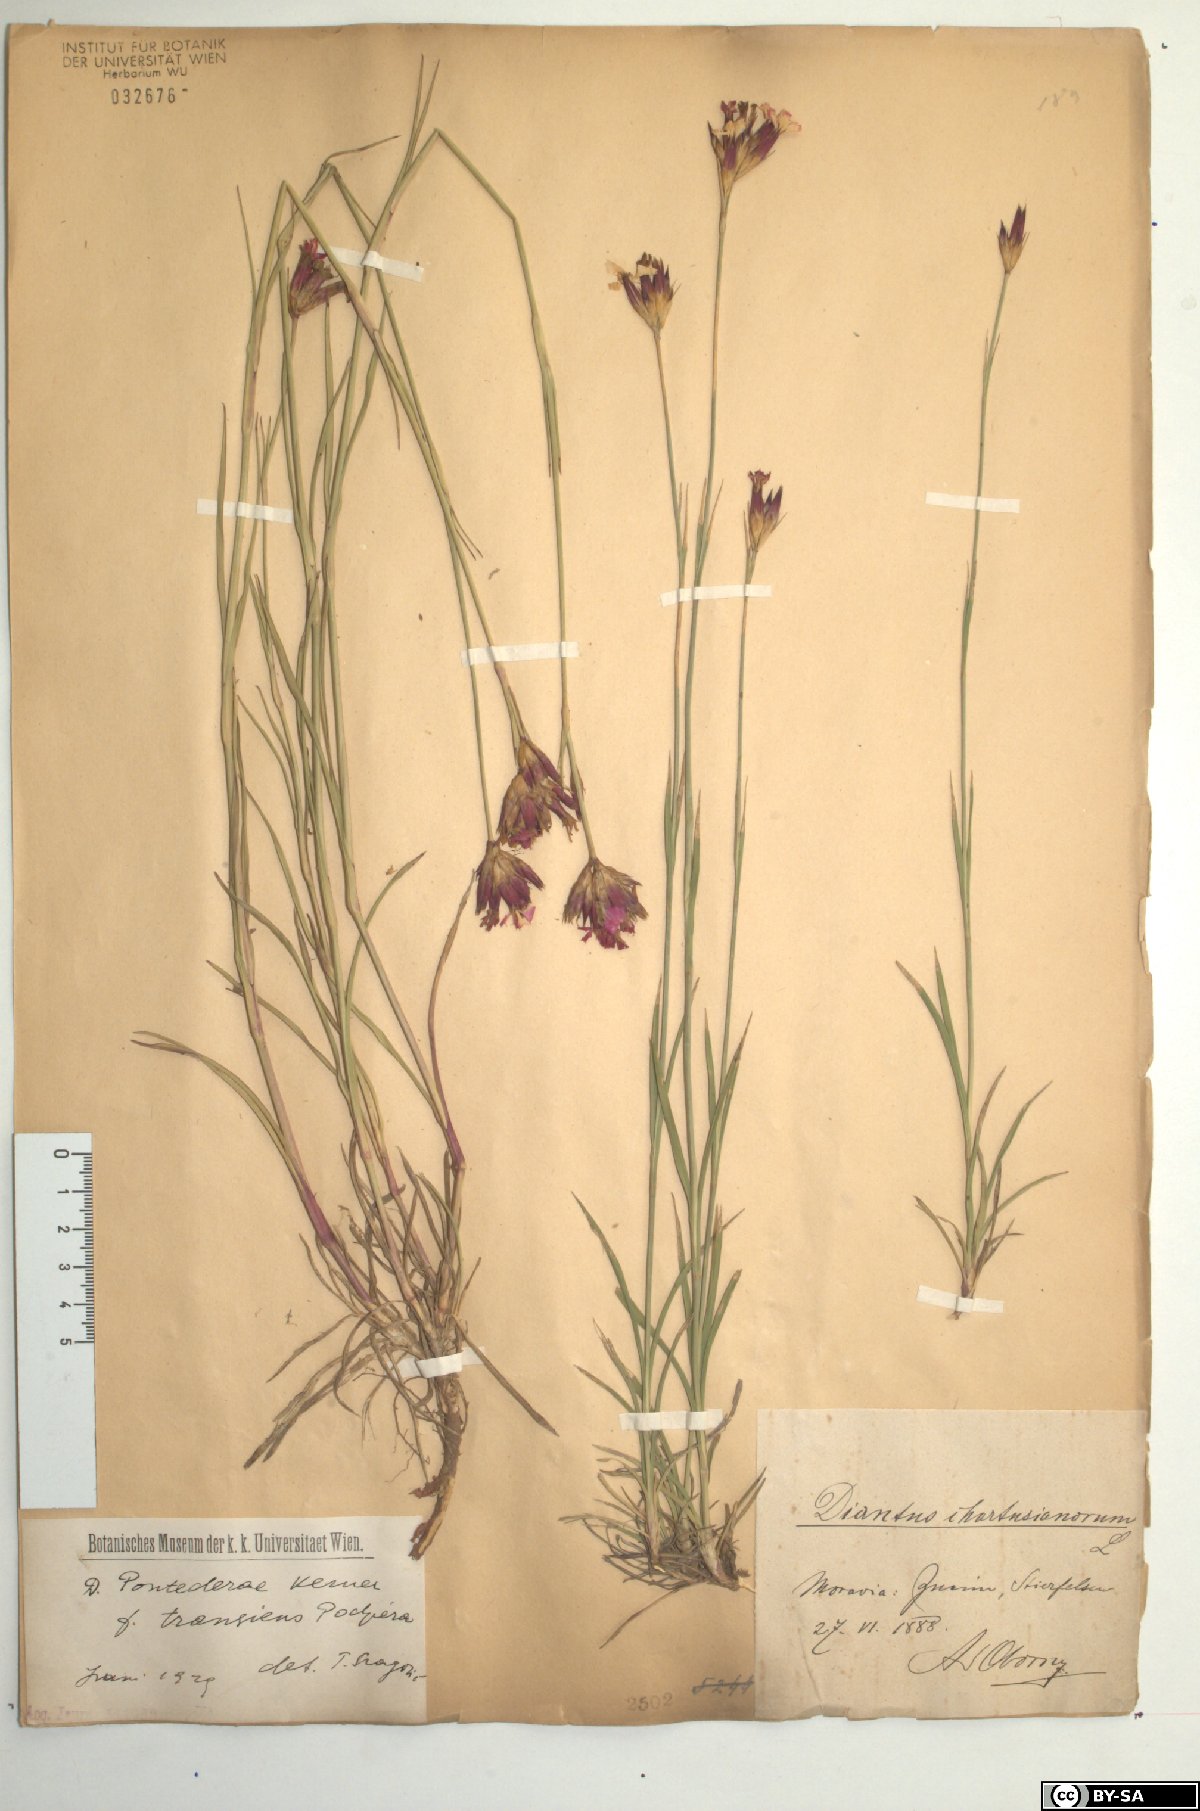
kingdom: Plantae
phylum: Tracheophyta
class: Magnoliopsida
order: Caryophyllales
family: Caryophyllaceae
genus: Dianthus
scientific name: Dianthus pontederae
